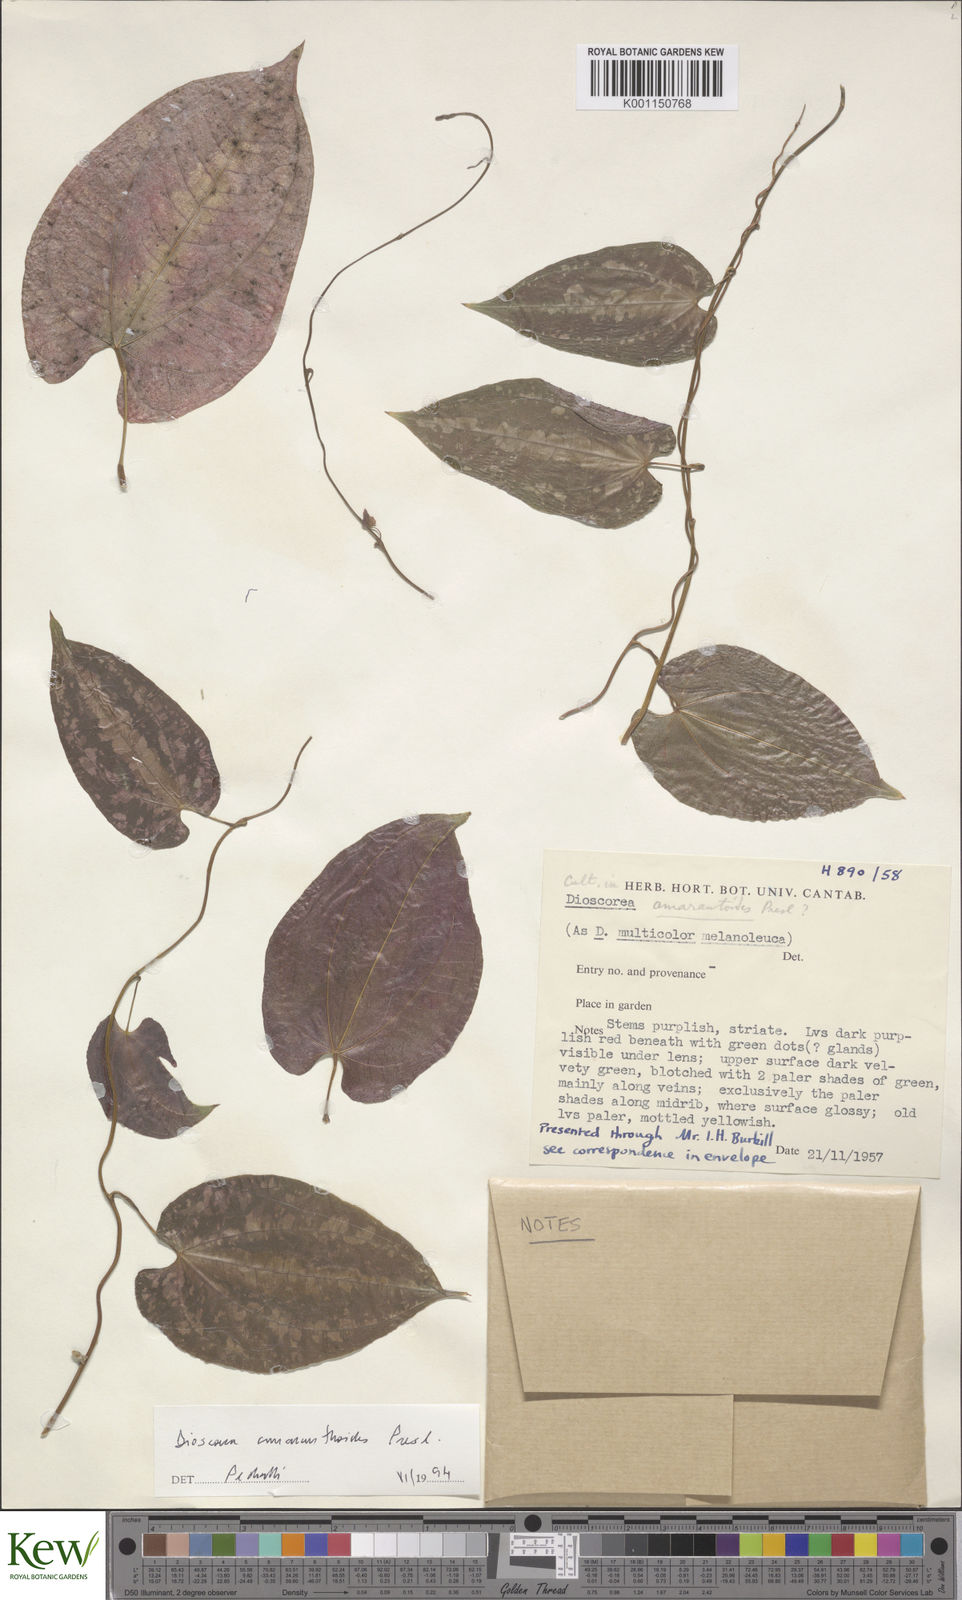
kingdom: Plantae
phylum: Tracheophyta
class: Liliopsida
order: Dioscoreales
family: Dioscoreaceae
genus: Dioscorea
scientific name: Dioscorea amaranthoides
